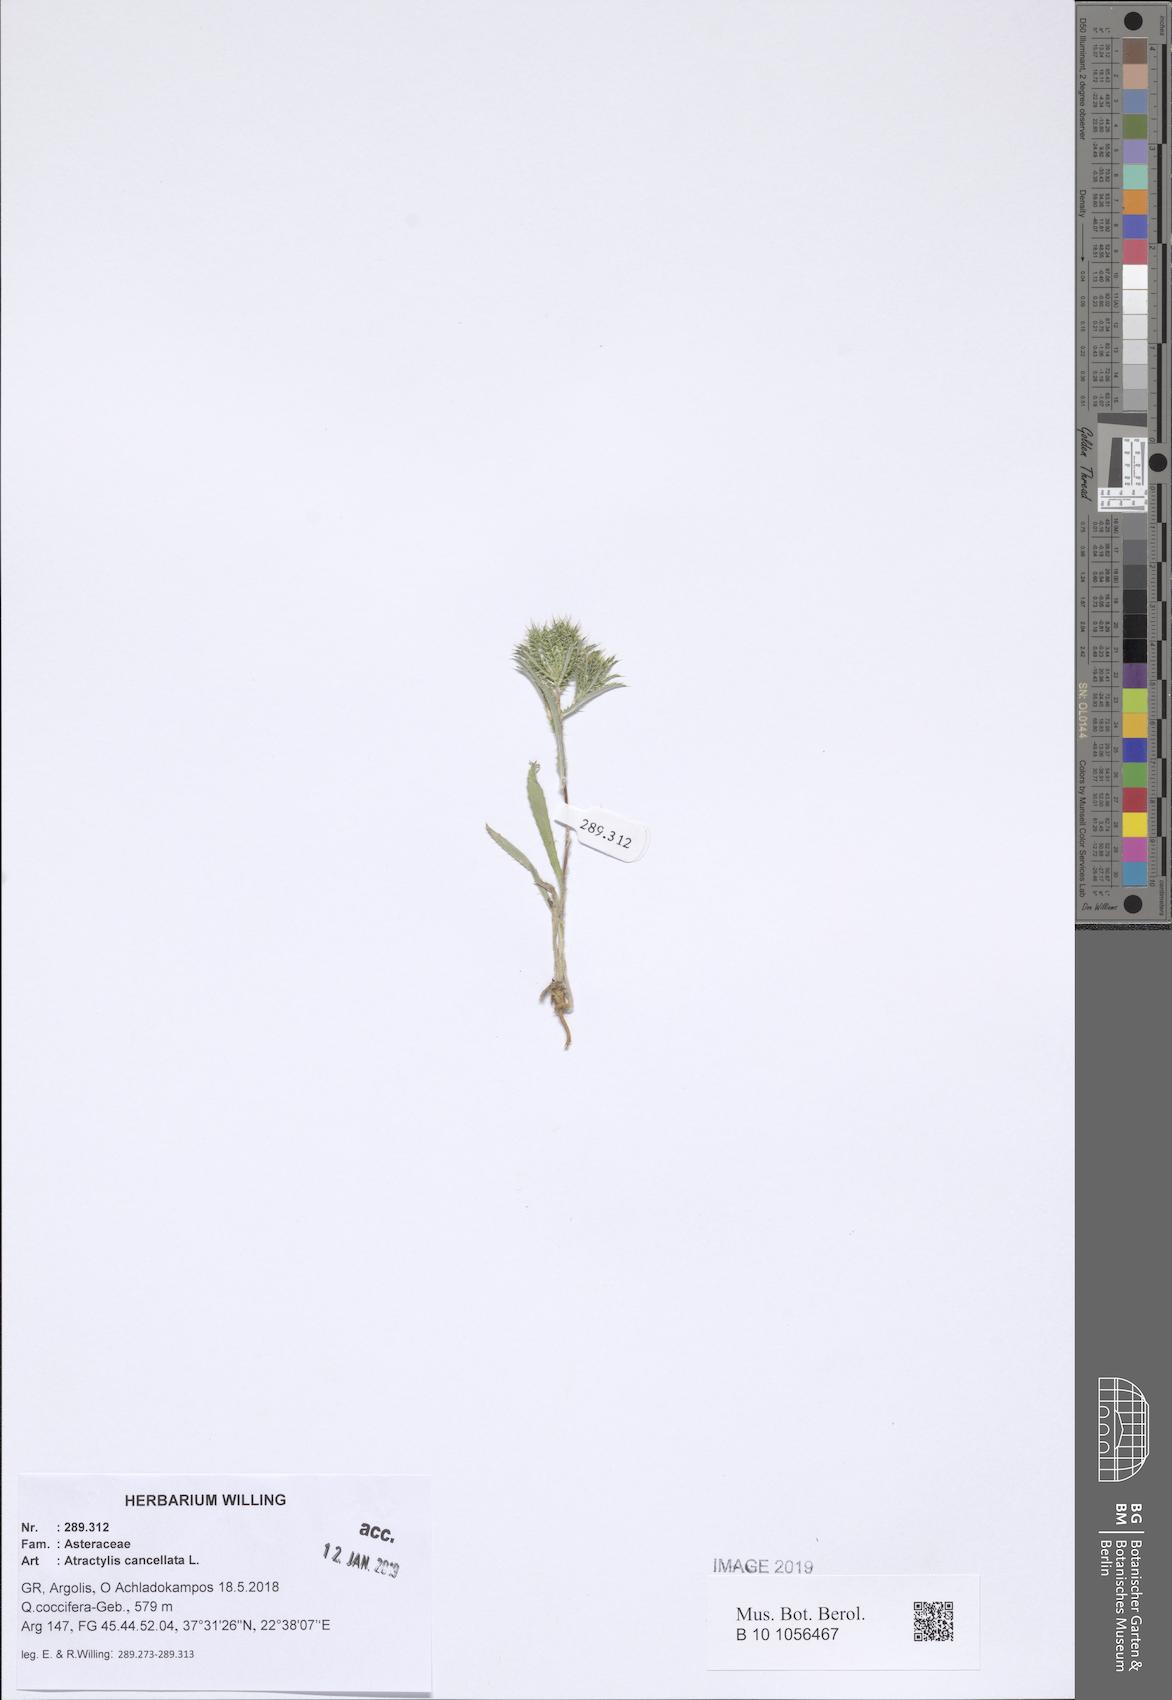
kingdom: Plantae
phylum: Tracheophyta
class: Magnoliopsida
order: Asterales
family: Asteraceae
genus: Atractylis
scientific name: Atractylis cancellata
